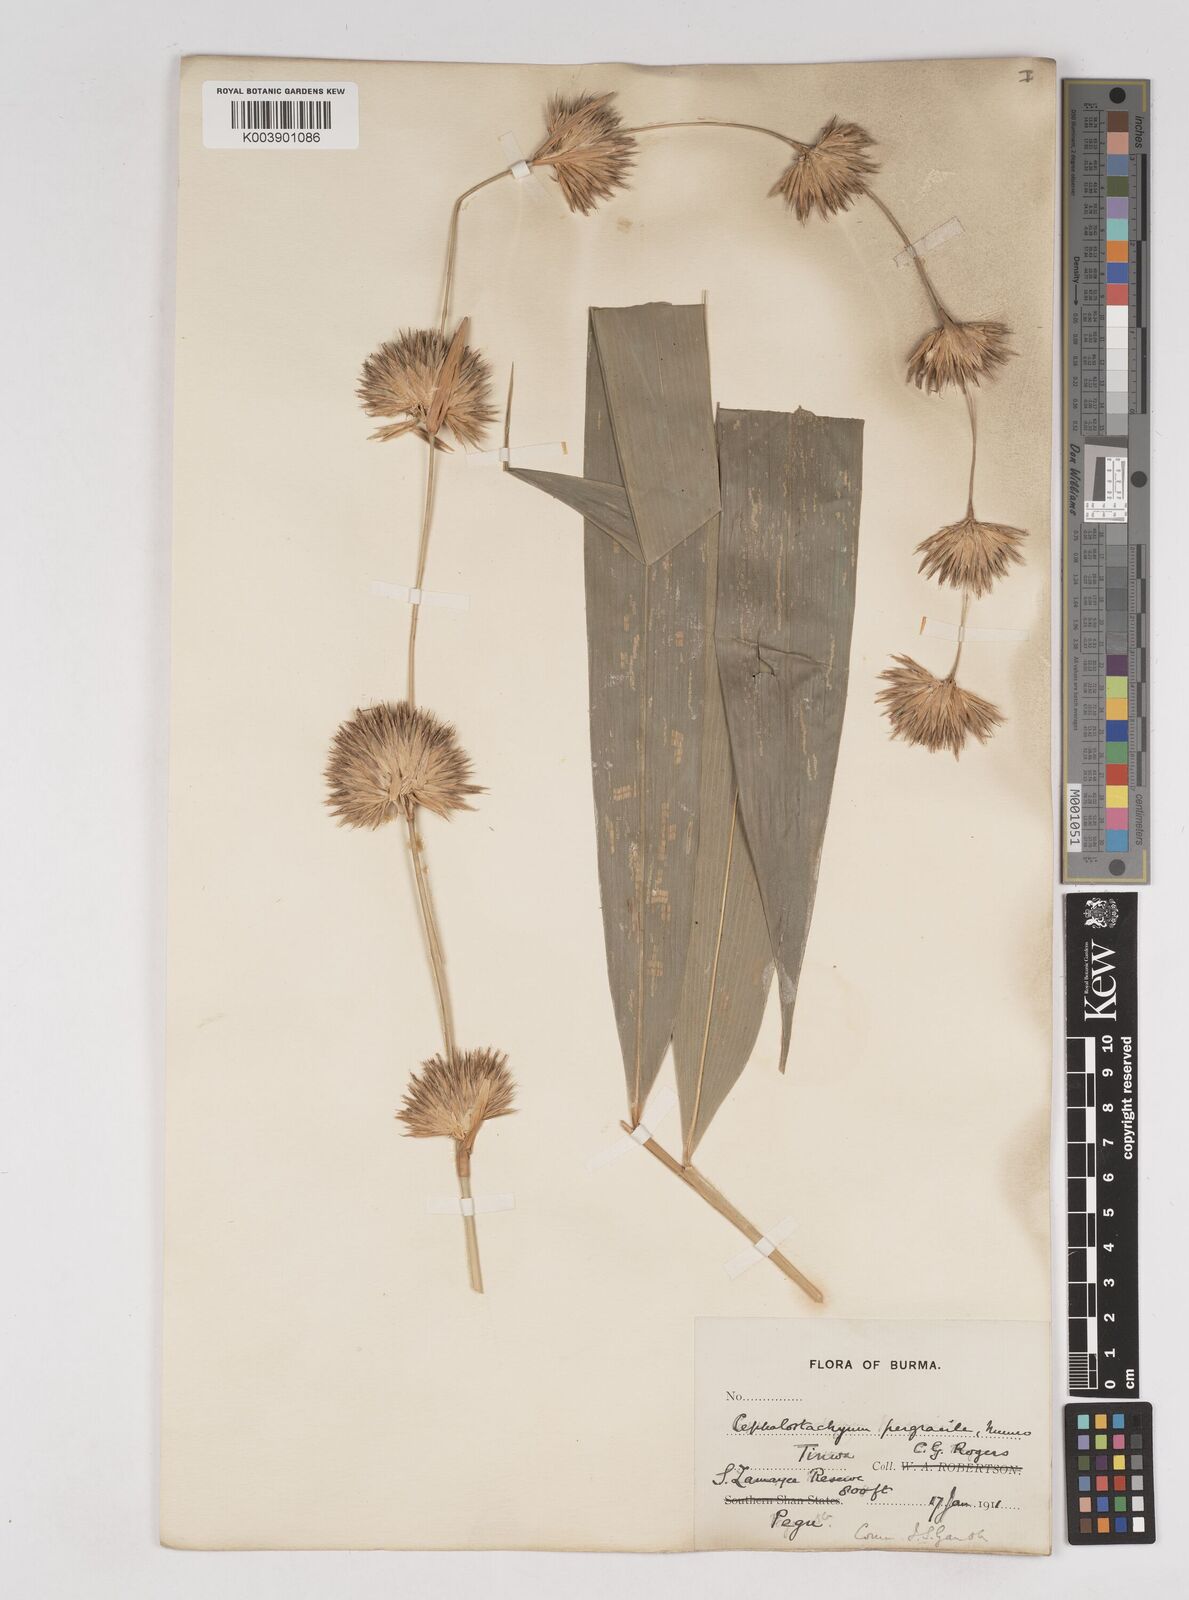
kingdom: Plantae
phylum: Tracheophyta
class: Liliopsida
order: Poales
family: Poaceae
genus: Schizostachyum
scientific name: Schizostachyum pergracile
